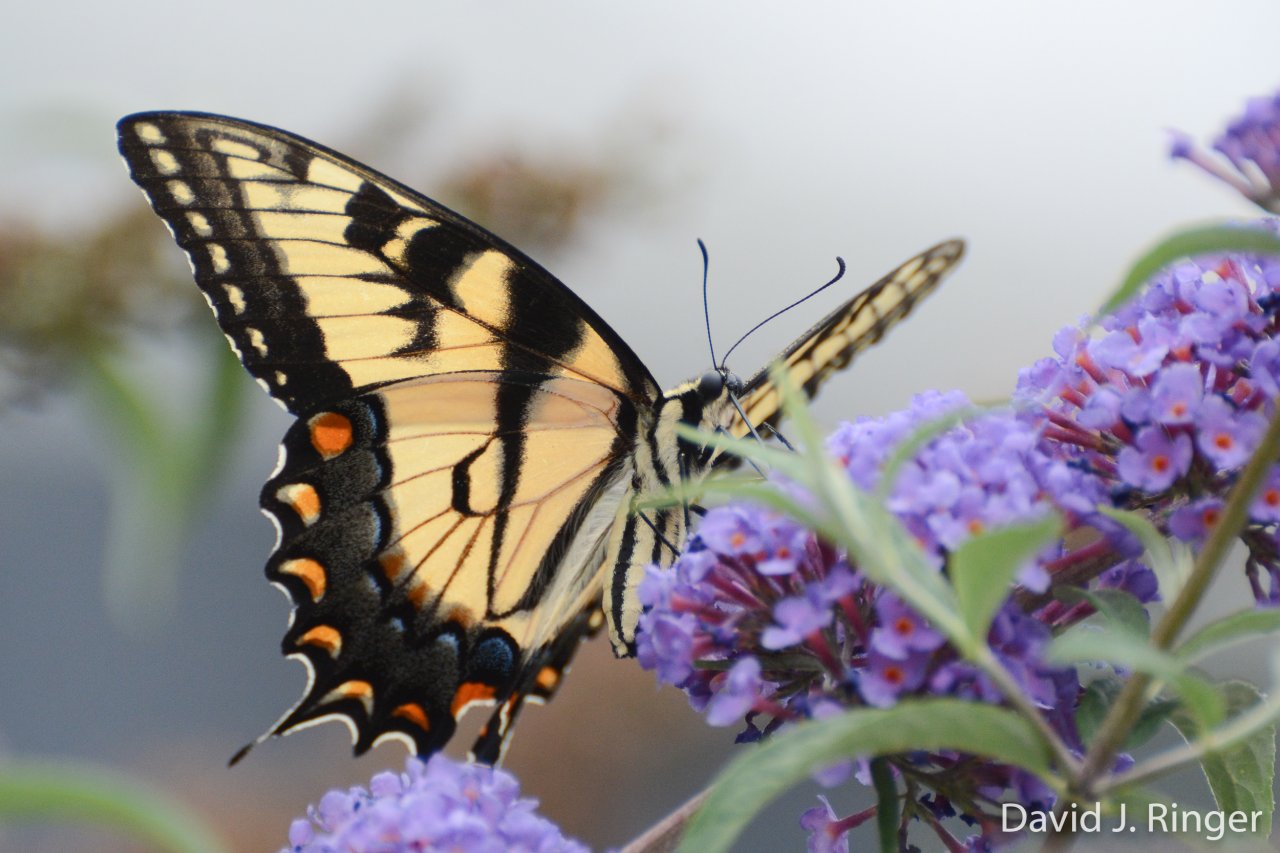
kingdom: Animalia
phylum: Arthropoda
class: Insecta
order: Lepidoptera
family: Papilionidae
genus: Pterourus
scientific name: Pterourus glaucus
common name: Eastern Tiger Swallowtail
